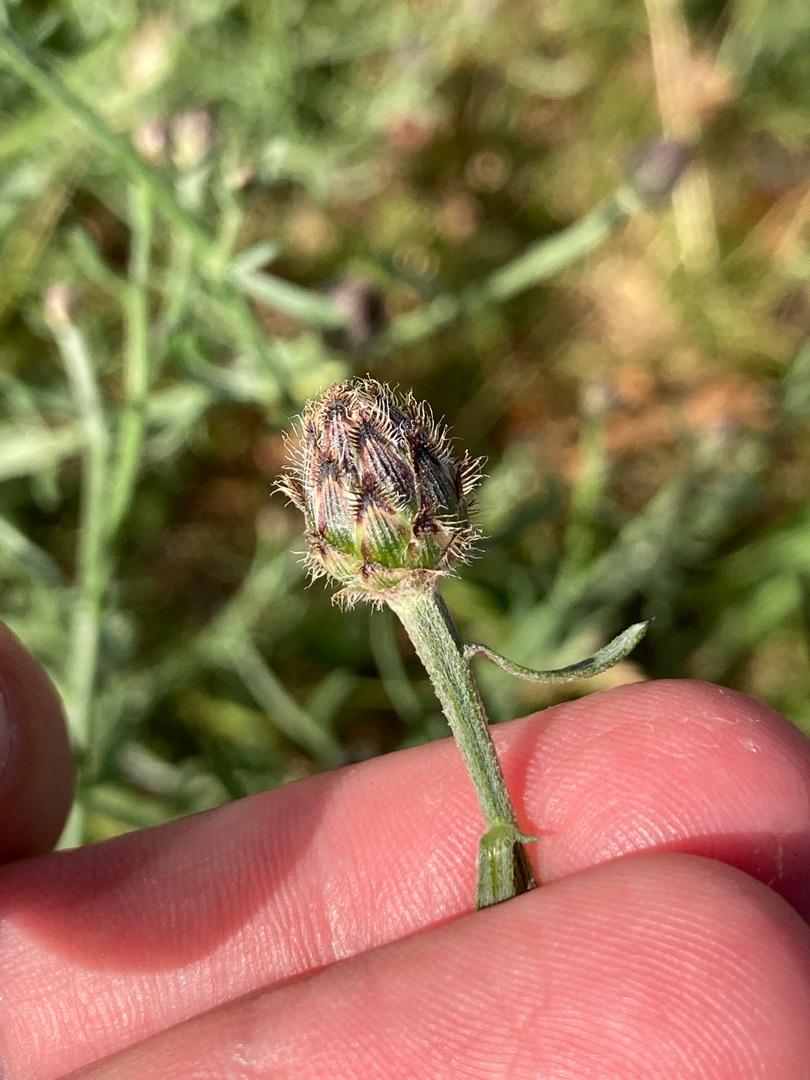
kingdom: Plantae
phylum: Tracheophyta
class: Magnoliopsida
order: Asterales
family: Asteraceae
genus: Centaurea
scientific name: Centaurea stoebe
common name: Mangegrenet knopurt
